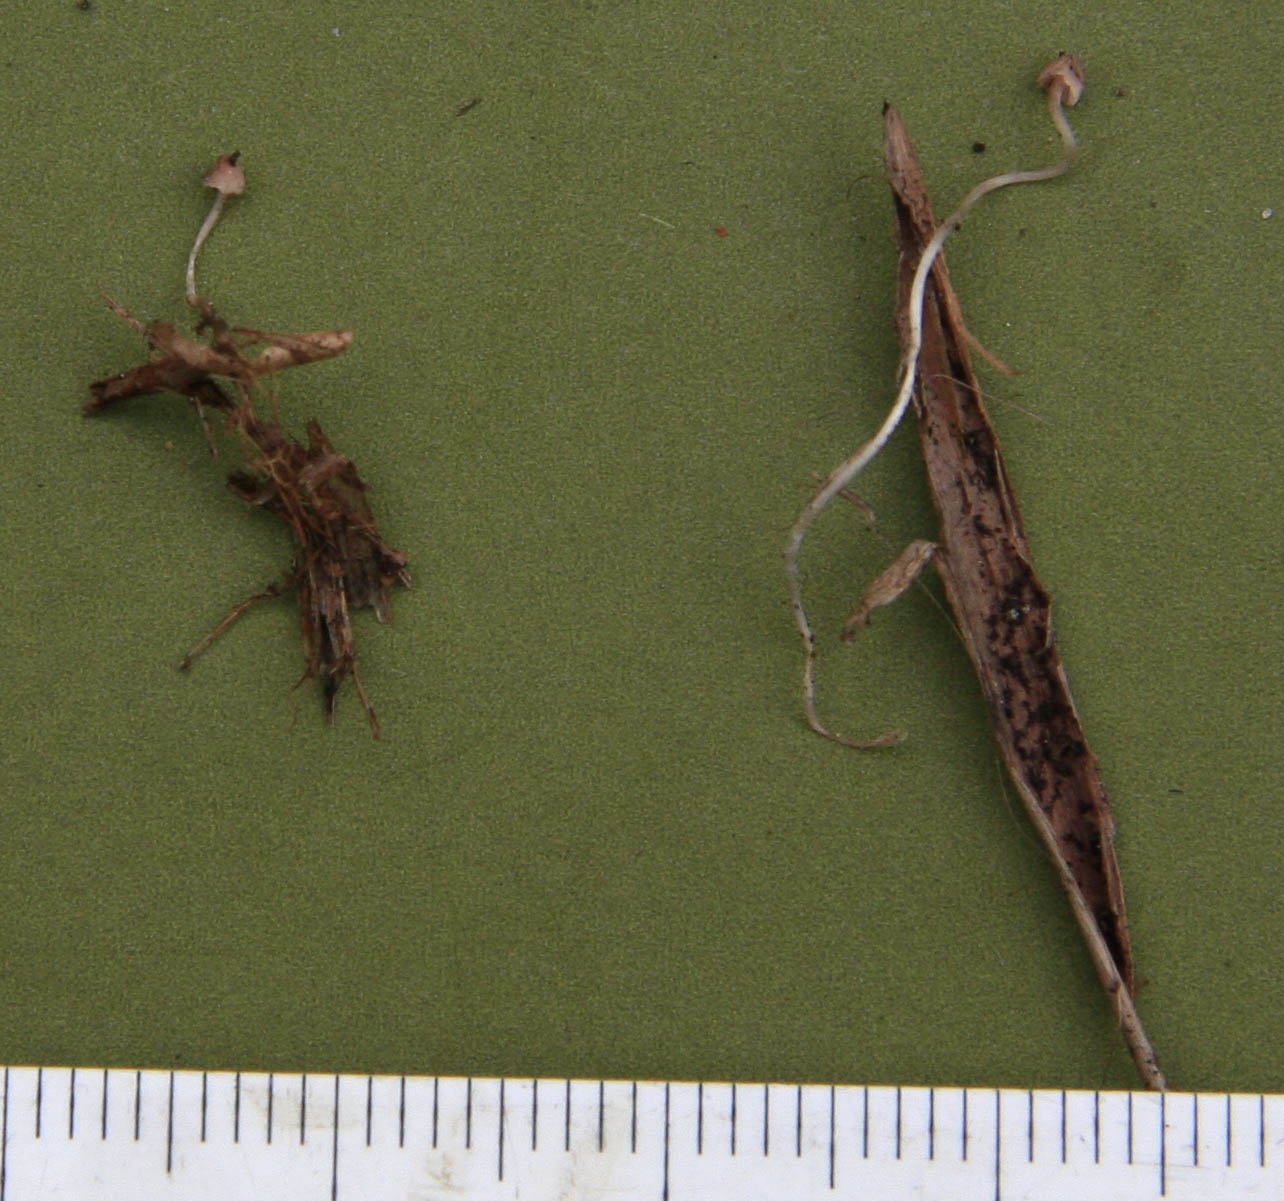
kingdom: Fungi
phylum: Basidiomycota
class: Agaricomycetes
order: Agaricales
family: Mycenaceae
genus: Mycena
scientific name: Mycena riparia
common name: star-huesvamp
